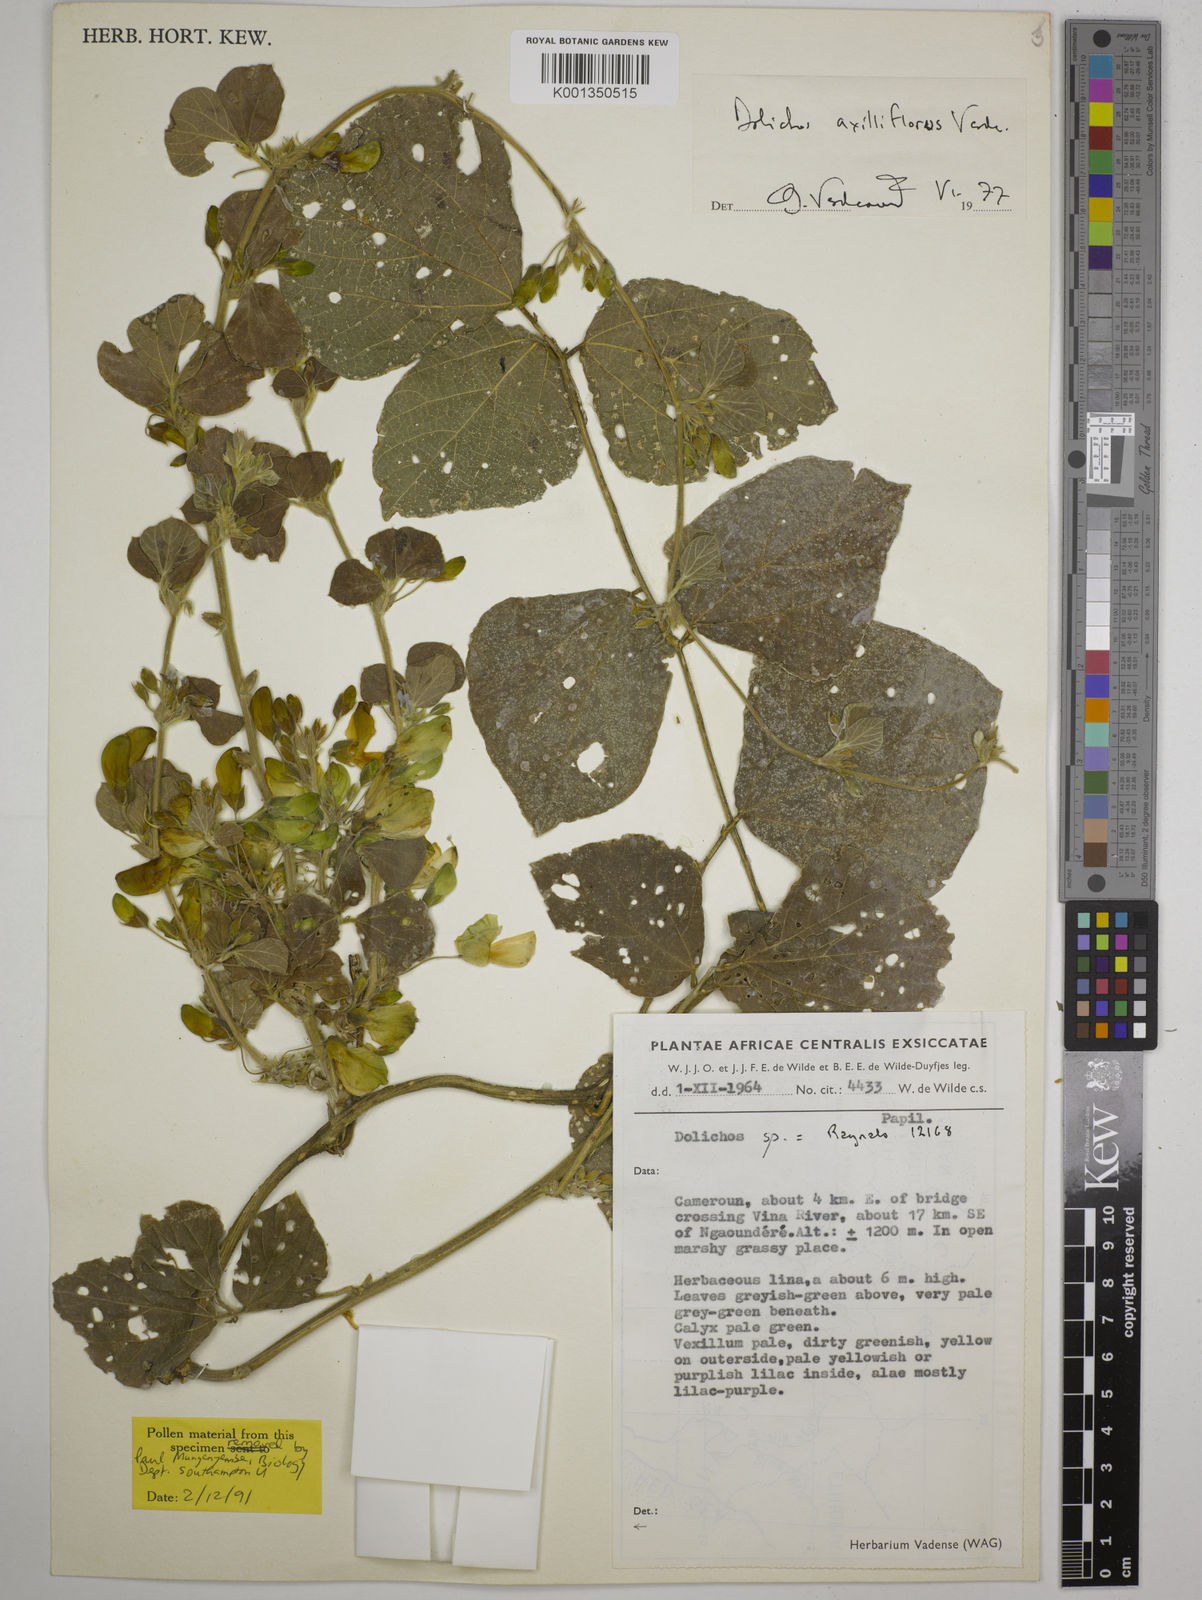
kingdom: Plantae
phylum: Tracheophyta
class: Magnoliopsida
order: Fabales
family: Fabaceae
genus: Macrotyloma
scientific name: Macrotyloma axillare
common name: Perennial horsegram
